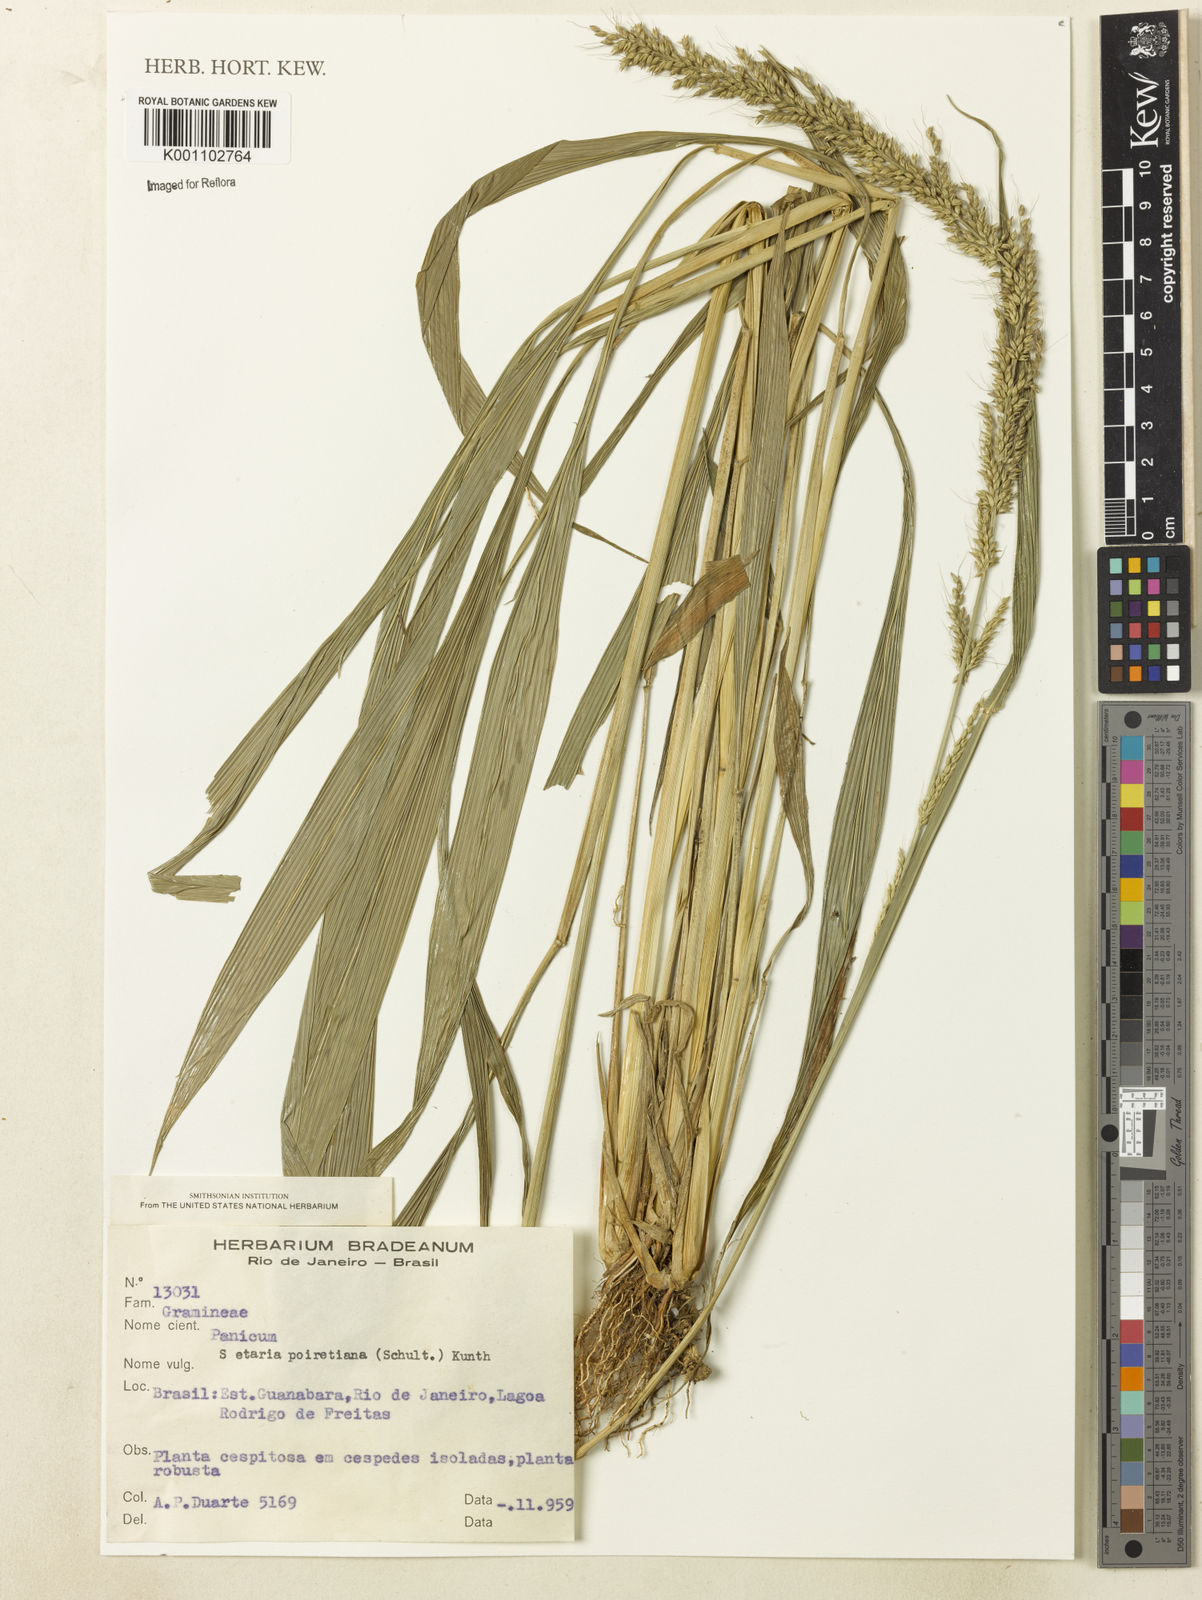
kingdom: Plantae
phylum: Tracheophyta
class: Liliopsida
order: Poales
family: Poaceae
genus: Setaria
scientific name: Setaria poiretiana
